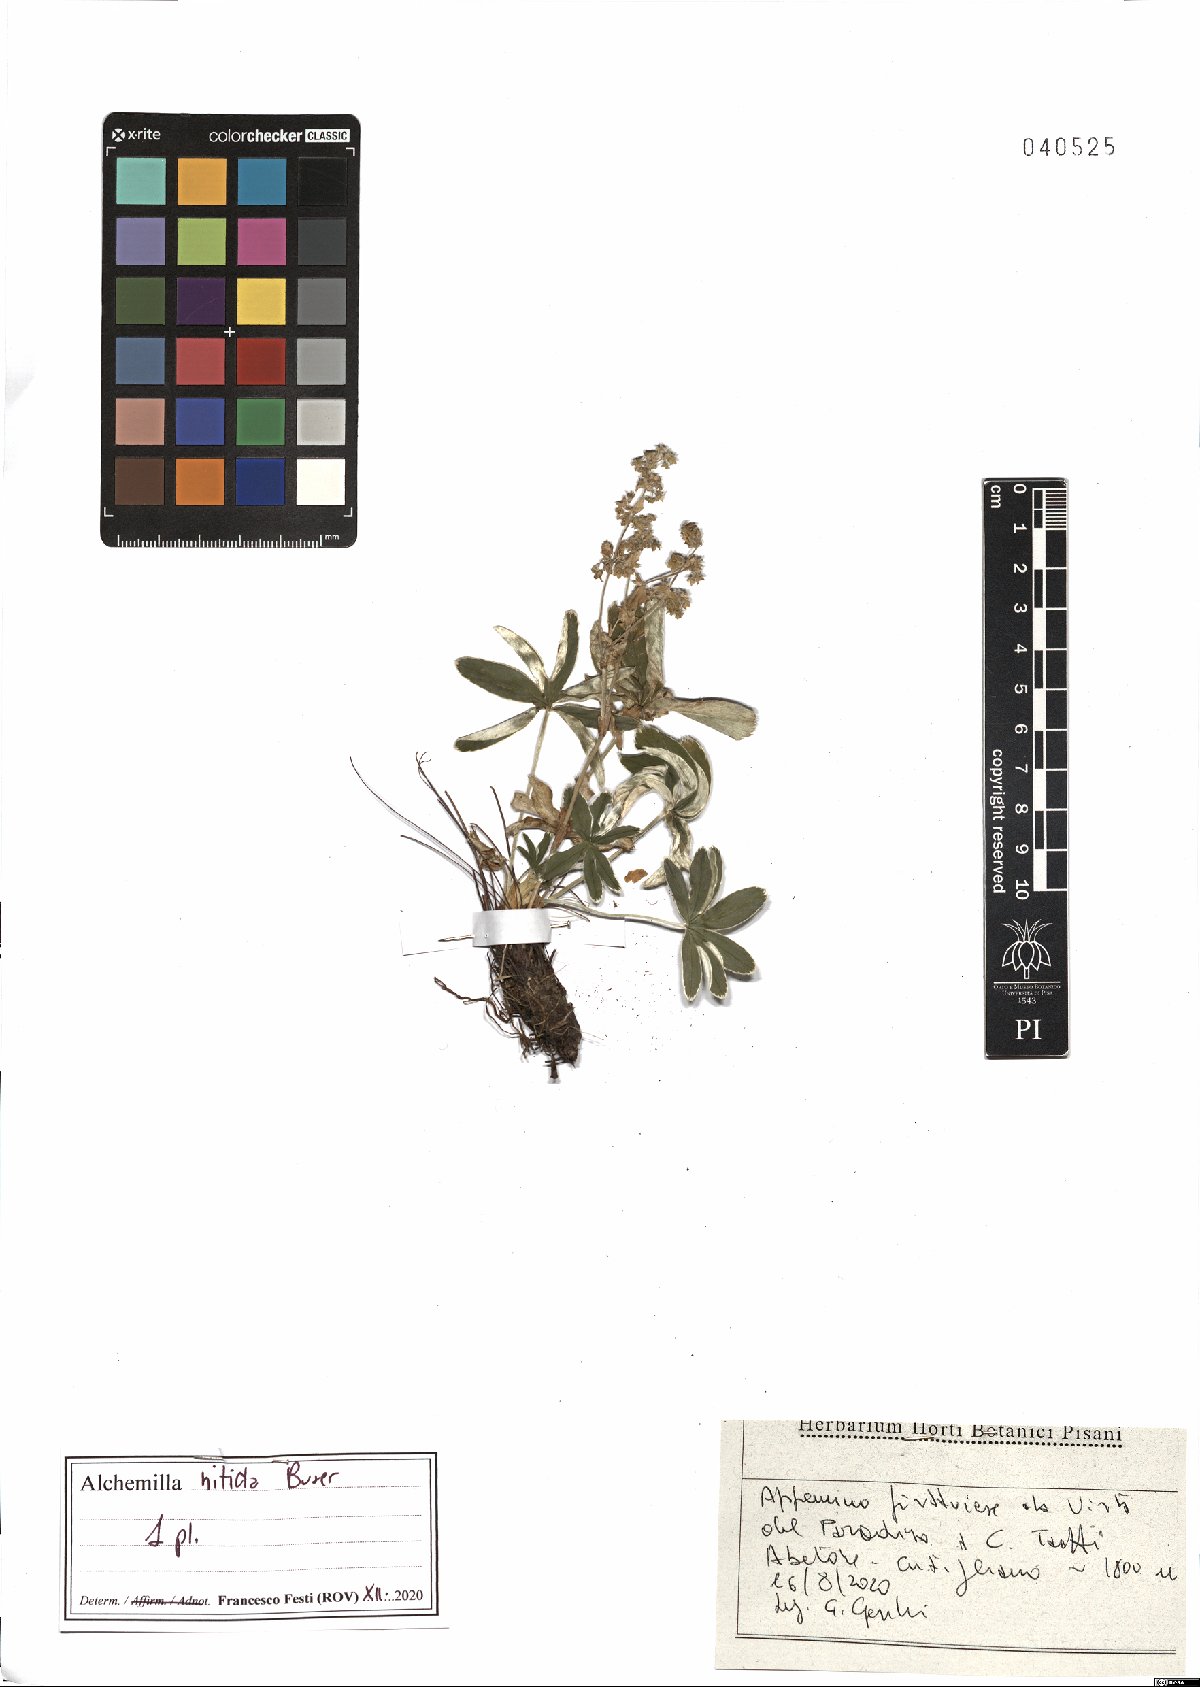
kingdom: Plantae
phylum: Tracheophyta
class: Magnoliopsida
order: Rosales
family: Rosaceae
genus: Alchemilla
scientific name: Alchemilla nitida
